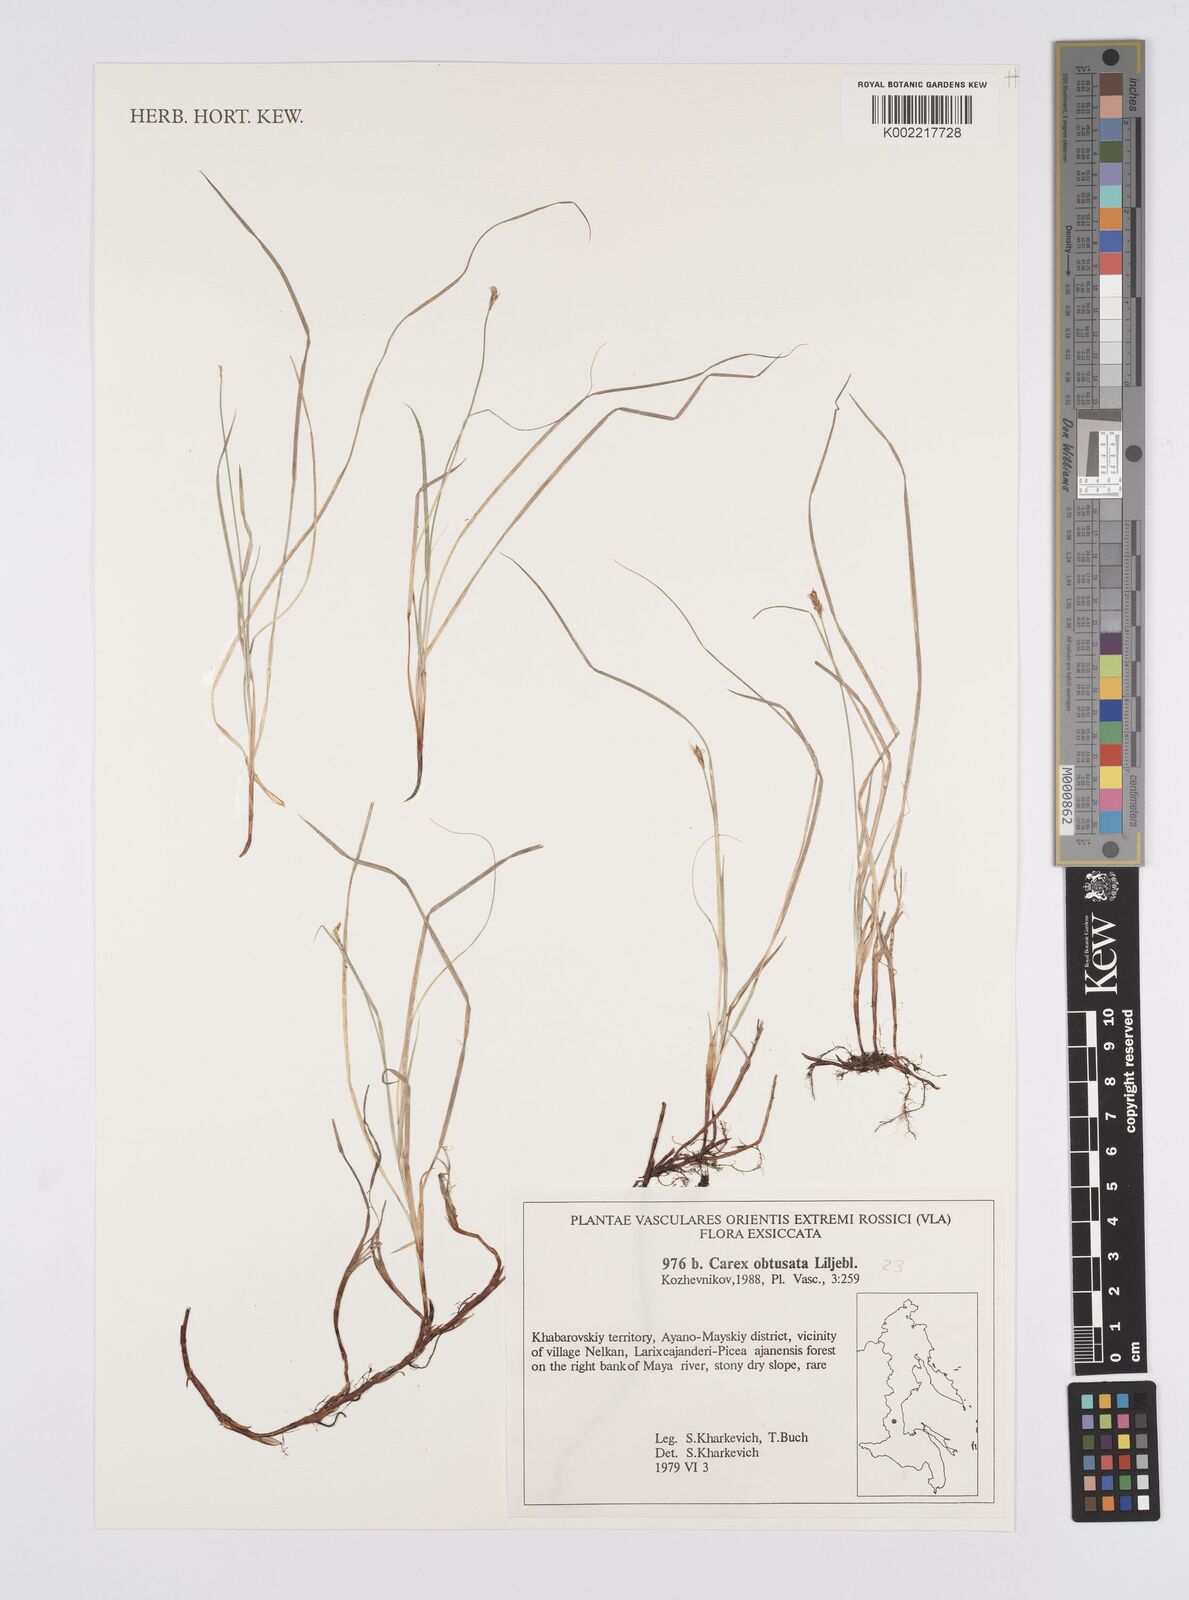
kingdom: Plantae
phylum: Tracheophyta
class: Liliopsida
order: Poales
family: Cyperaceae
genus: Carex
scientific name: Carex obtusata
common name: Blunt sedge
